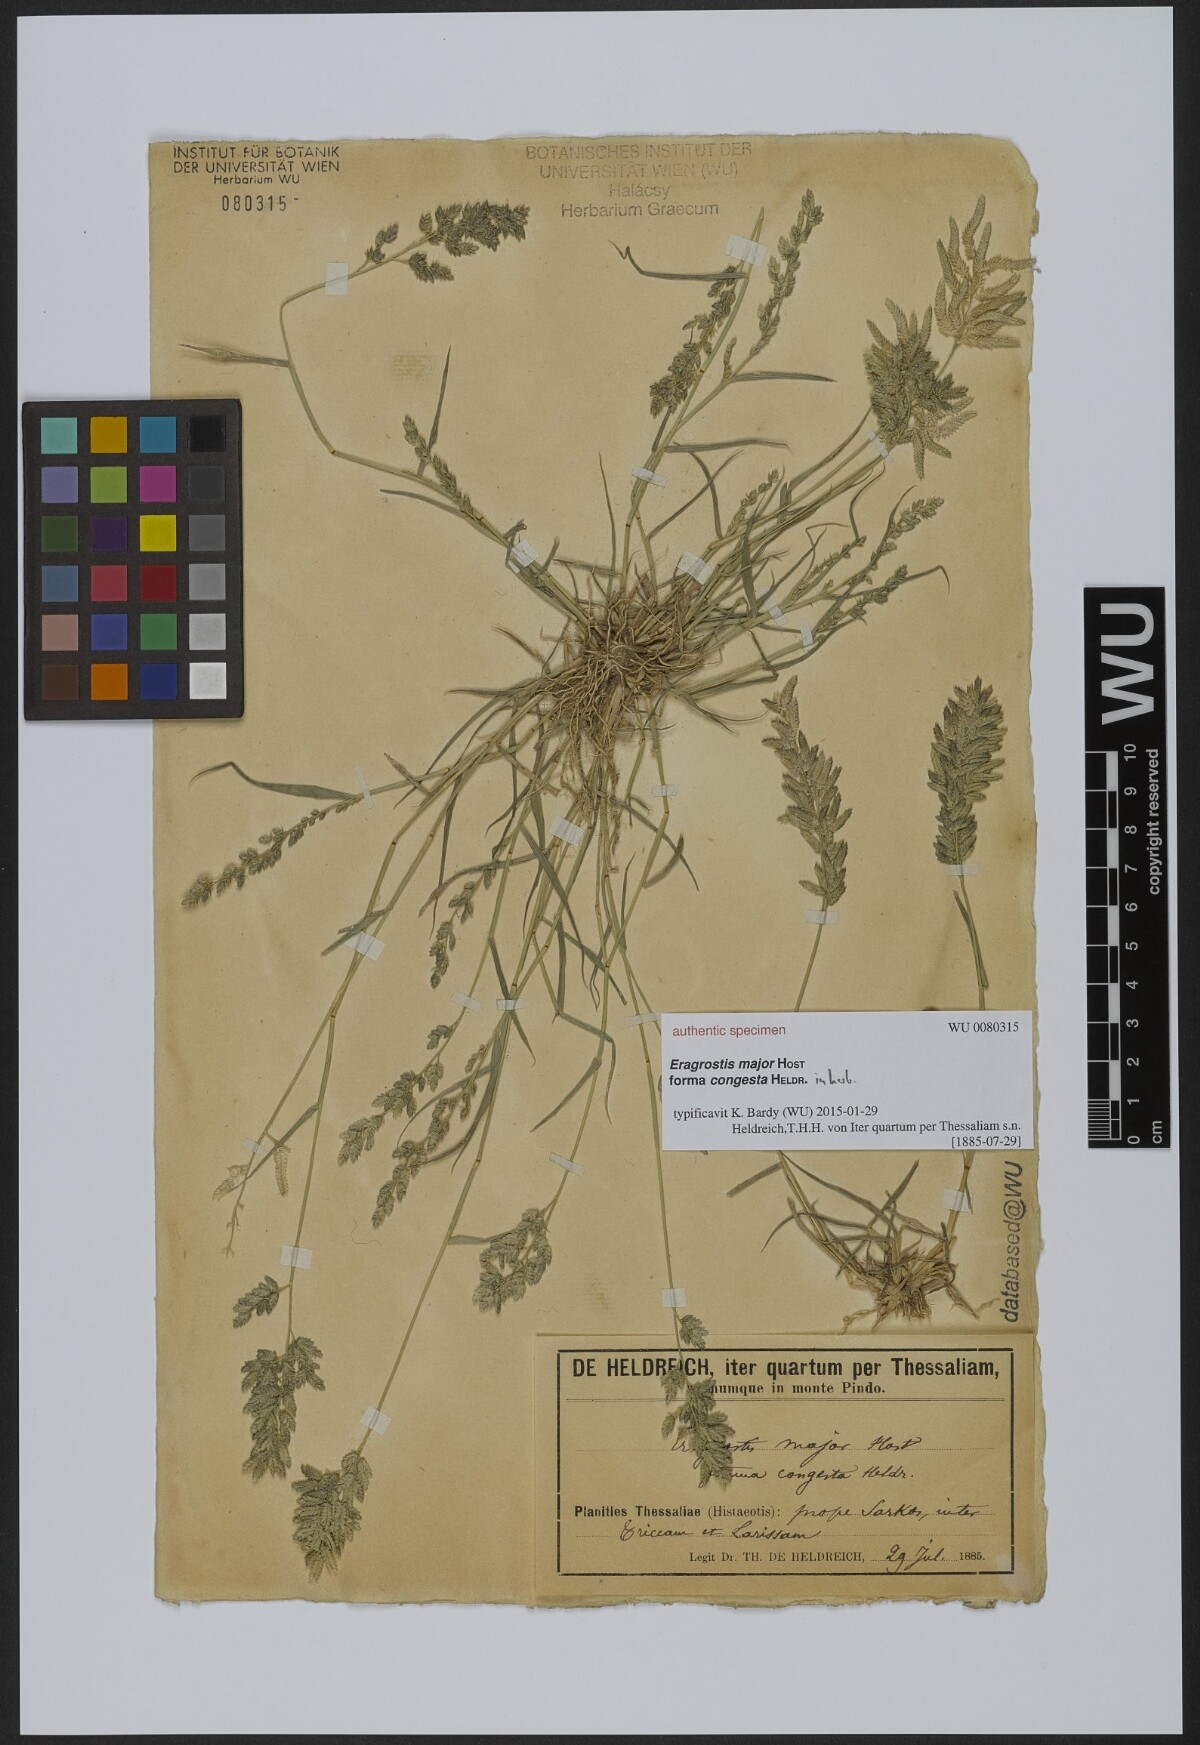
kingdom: Plantae
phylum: Tracheophyta
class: Liliopsida
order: Poales
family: Poaceae
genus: Eragrostis
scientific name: Eragrostis cilianensis
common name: Stinkgrass
